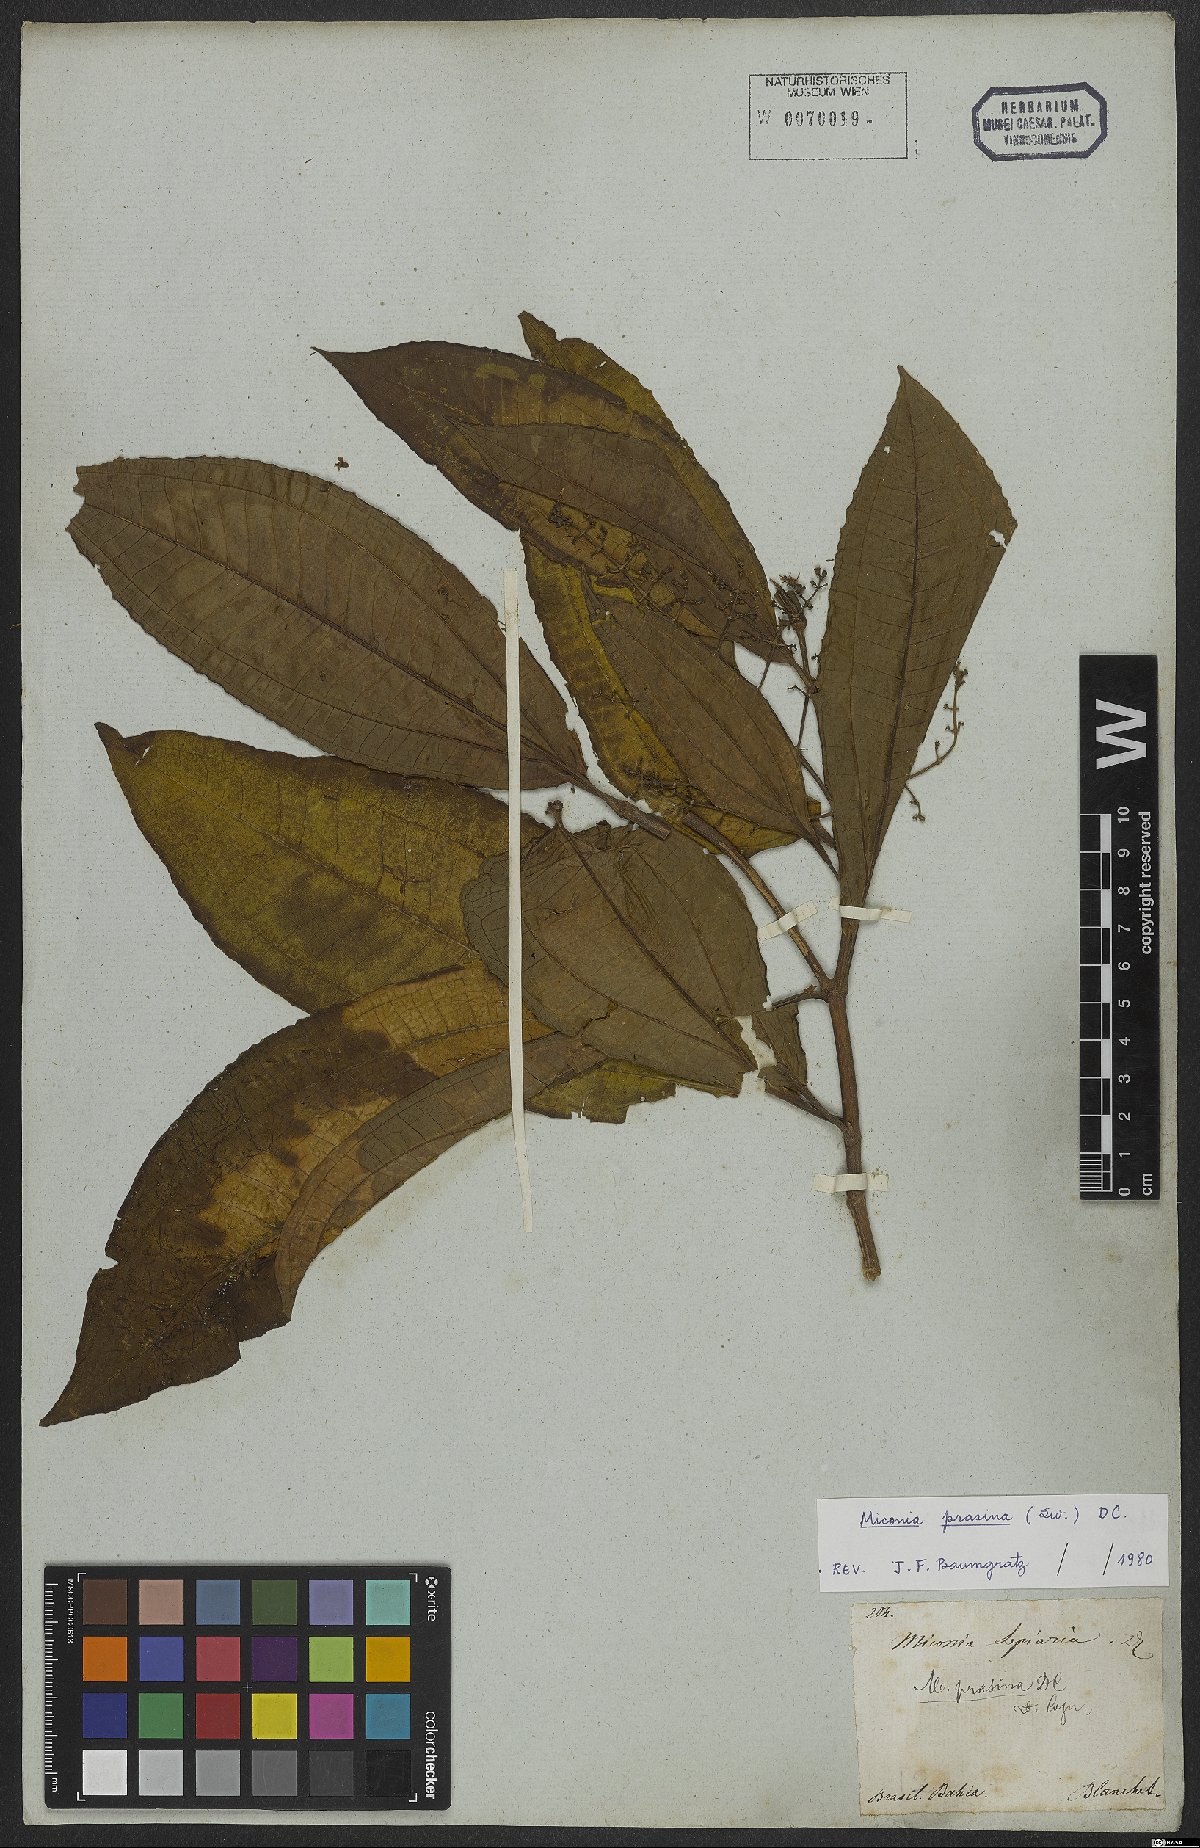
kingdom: Plantae
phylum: Tracheophyta
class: Magnoliopsida
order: Myrtales
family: Melastomataceae
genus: Miconia
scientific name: Miconia prasina
